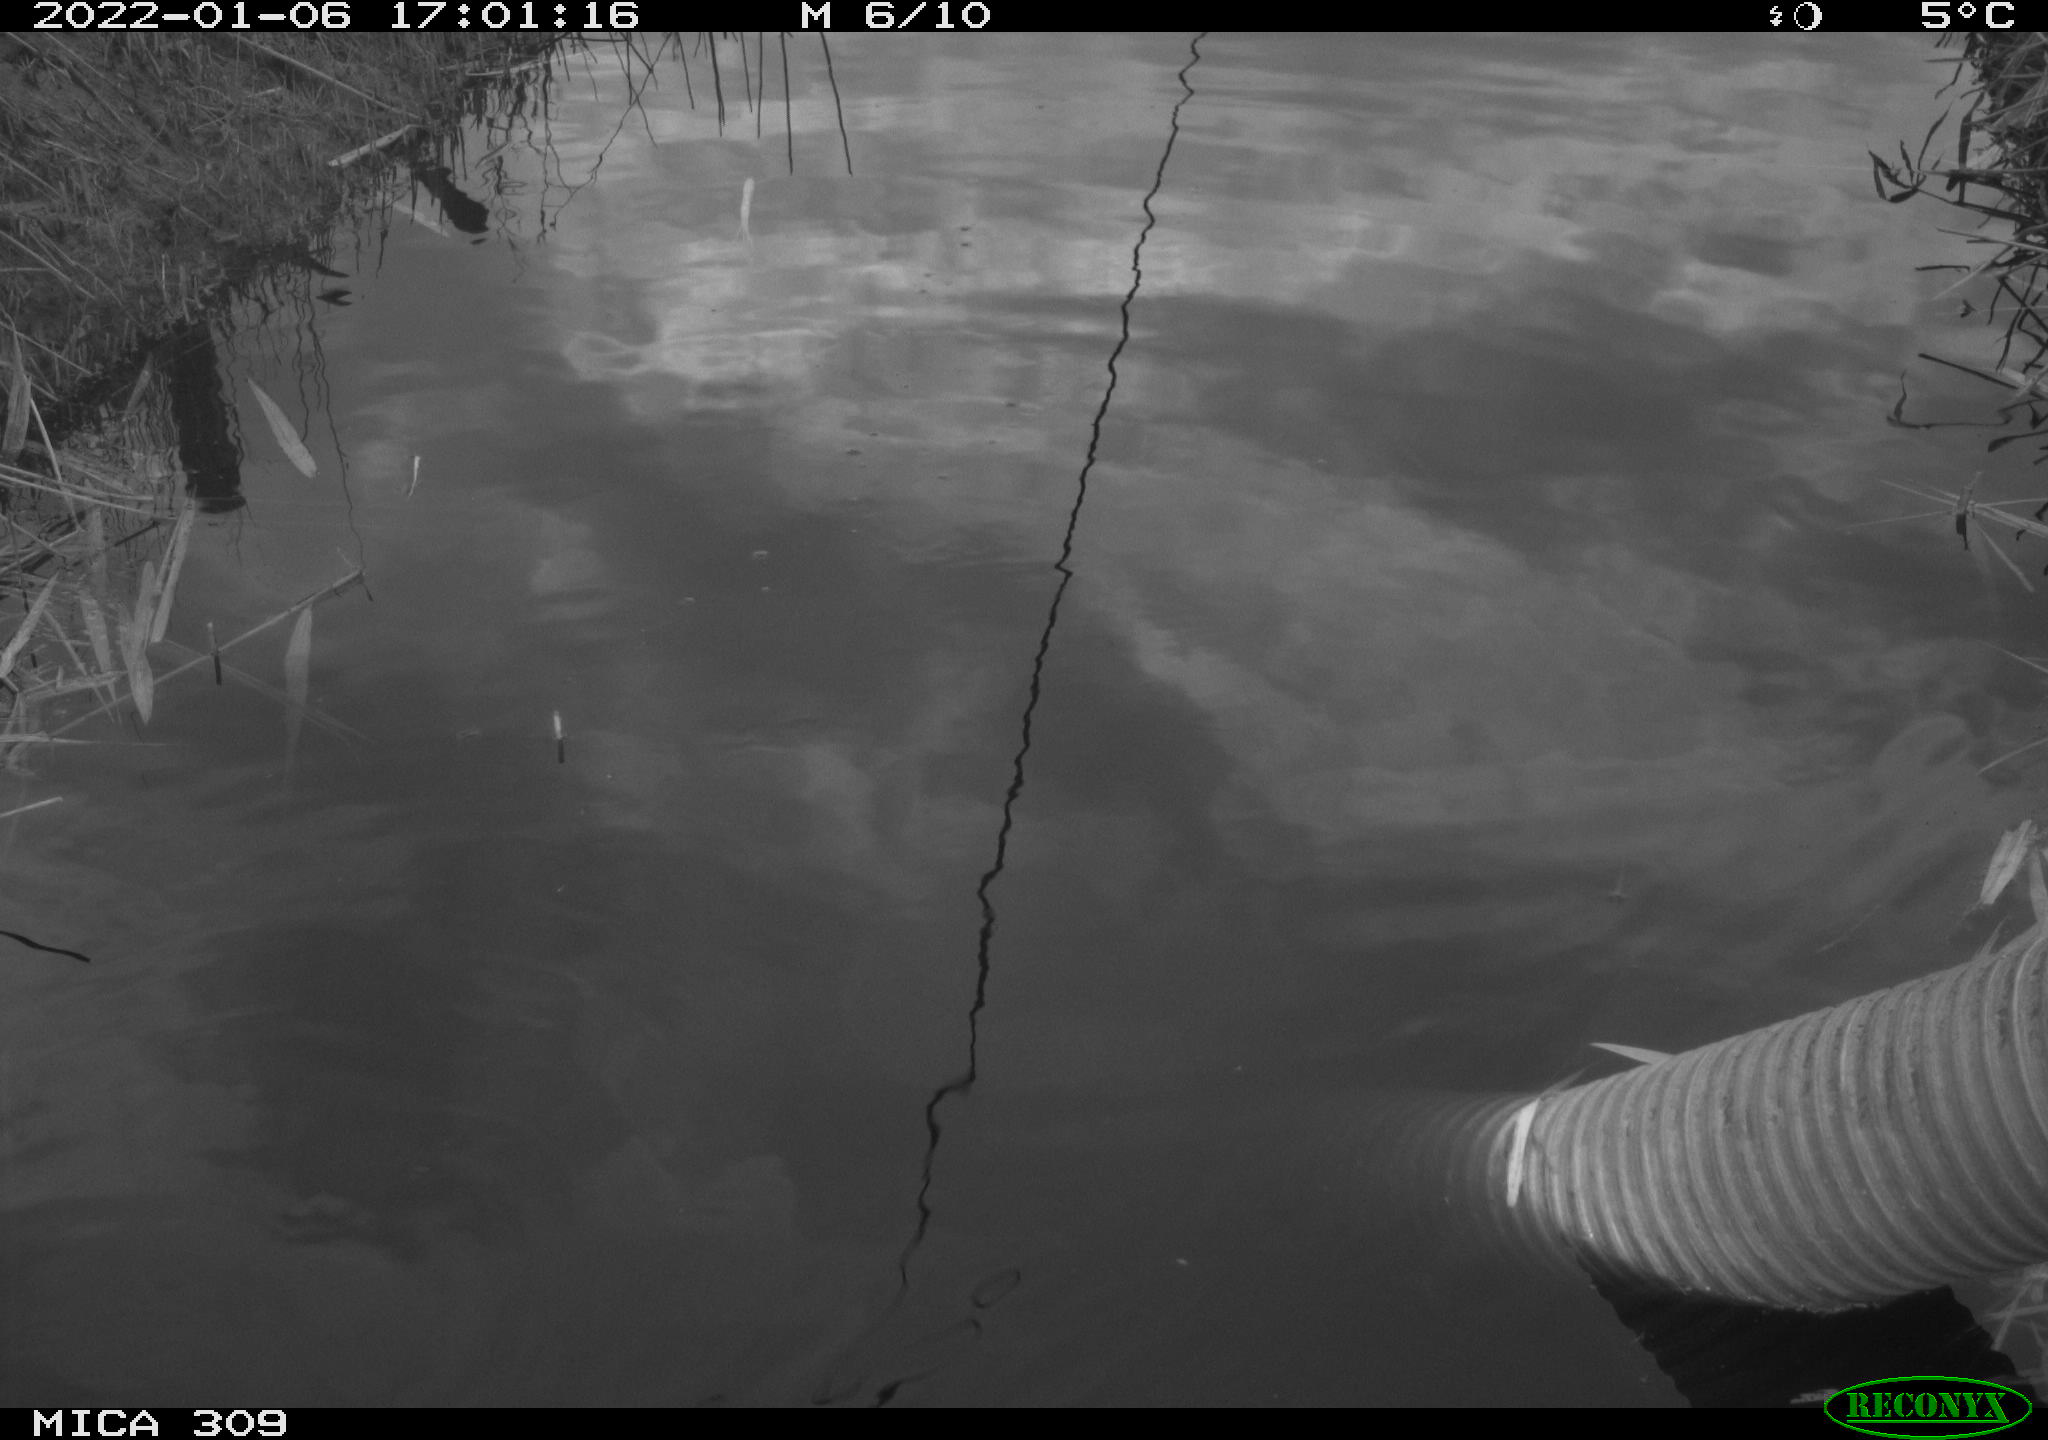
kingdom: Animalia
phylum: Chordata
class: Aves
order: Gruiformes
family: Rallidae
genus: Gallinula
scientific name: Gallinula chloropus
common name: Common moorhen
